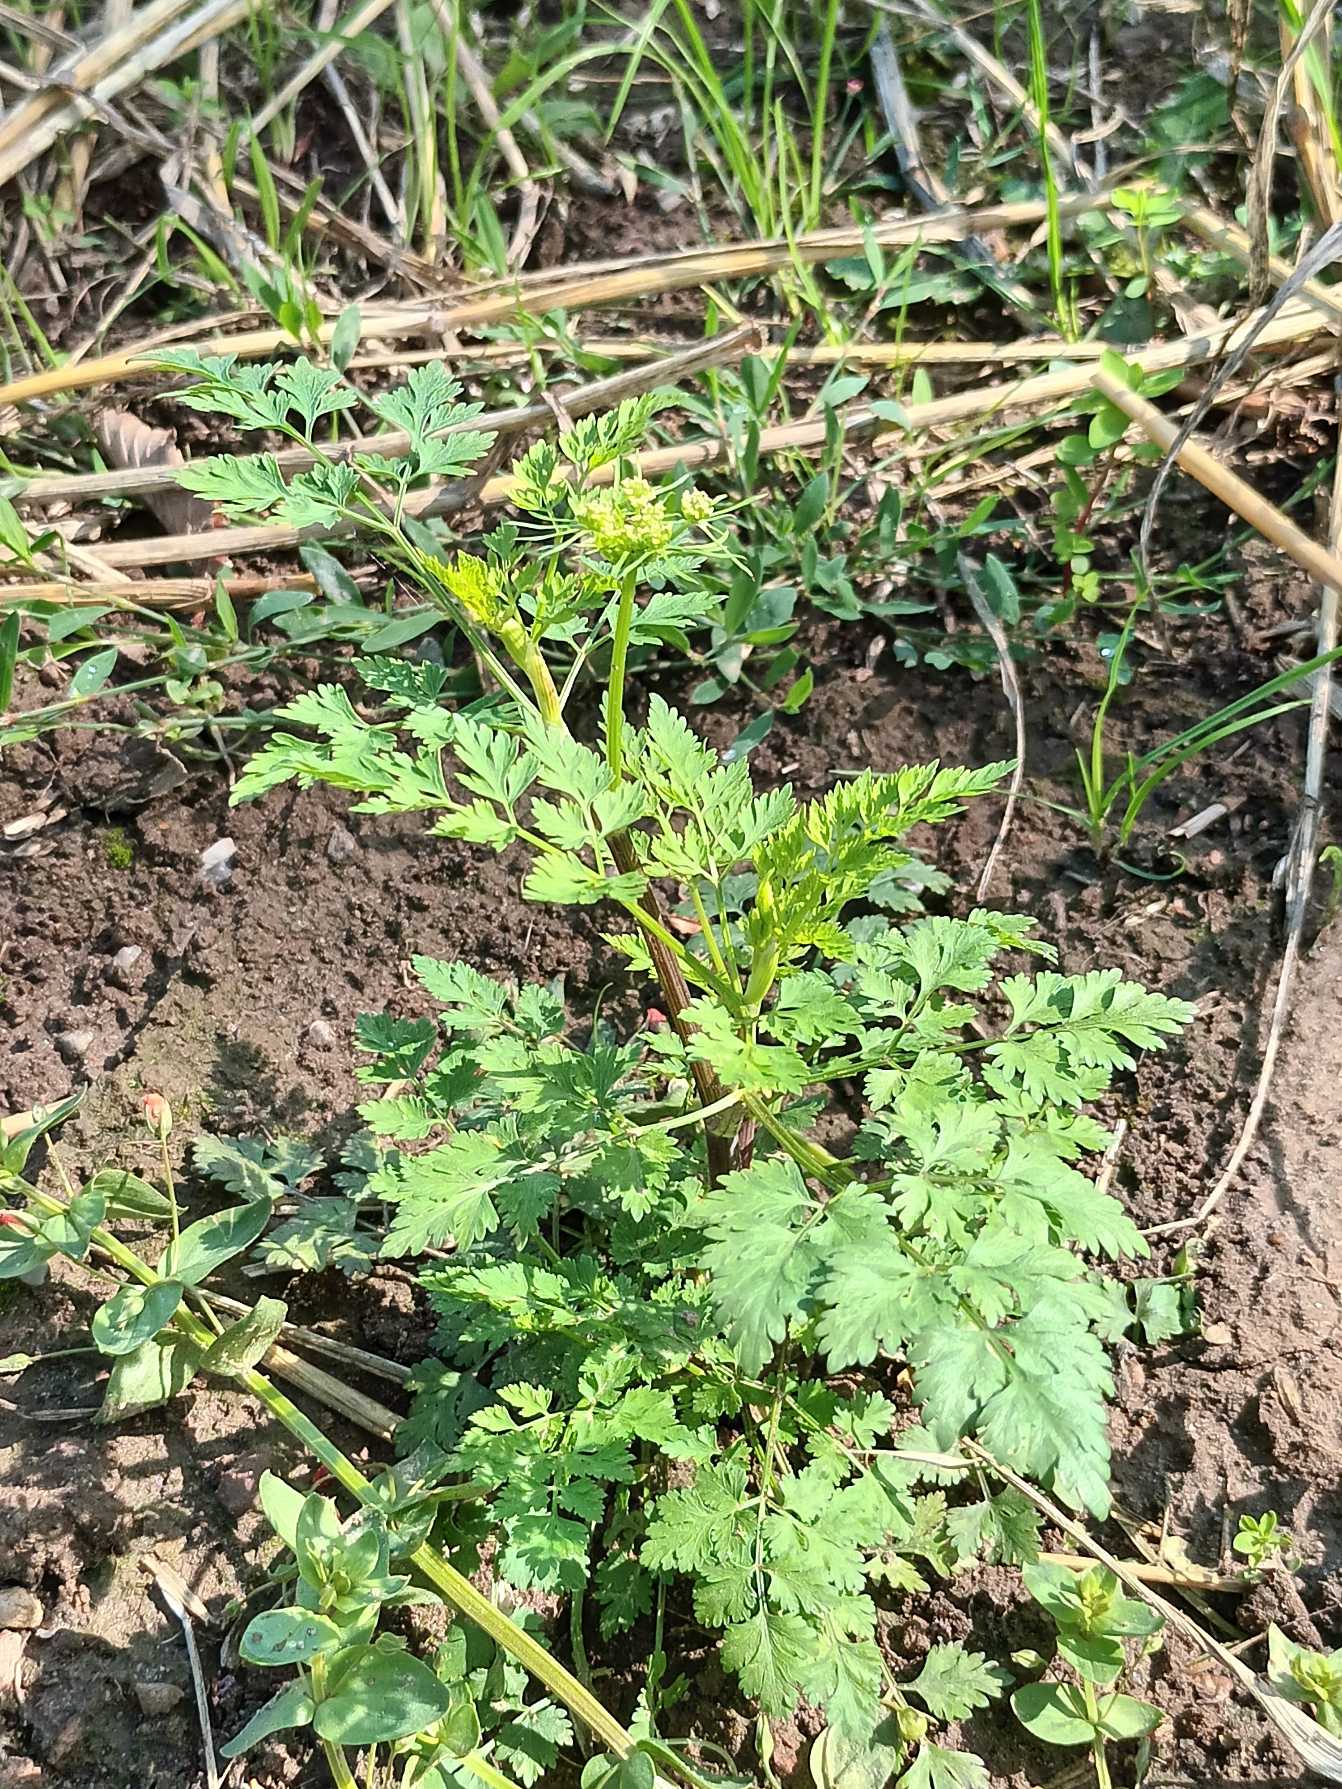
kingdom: Plantae
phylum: Tracheophyta
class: Magnoliopsida
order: Apiales
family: Apiaceae
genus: Aethusa
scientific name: Aethusa cynapium
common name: Hundepersille
